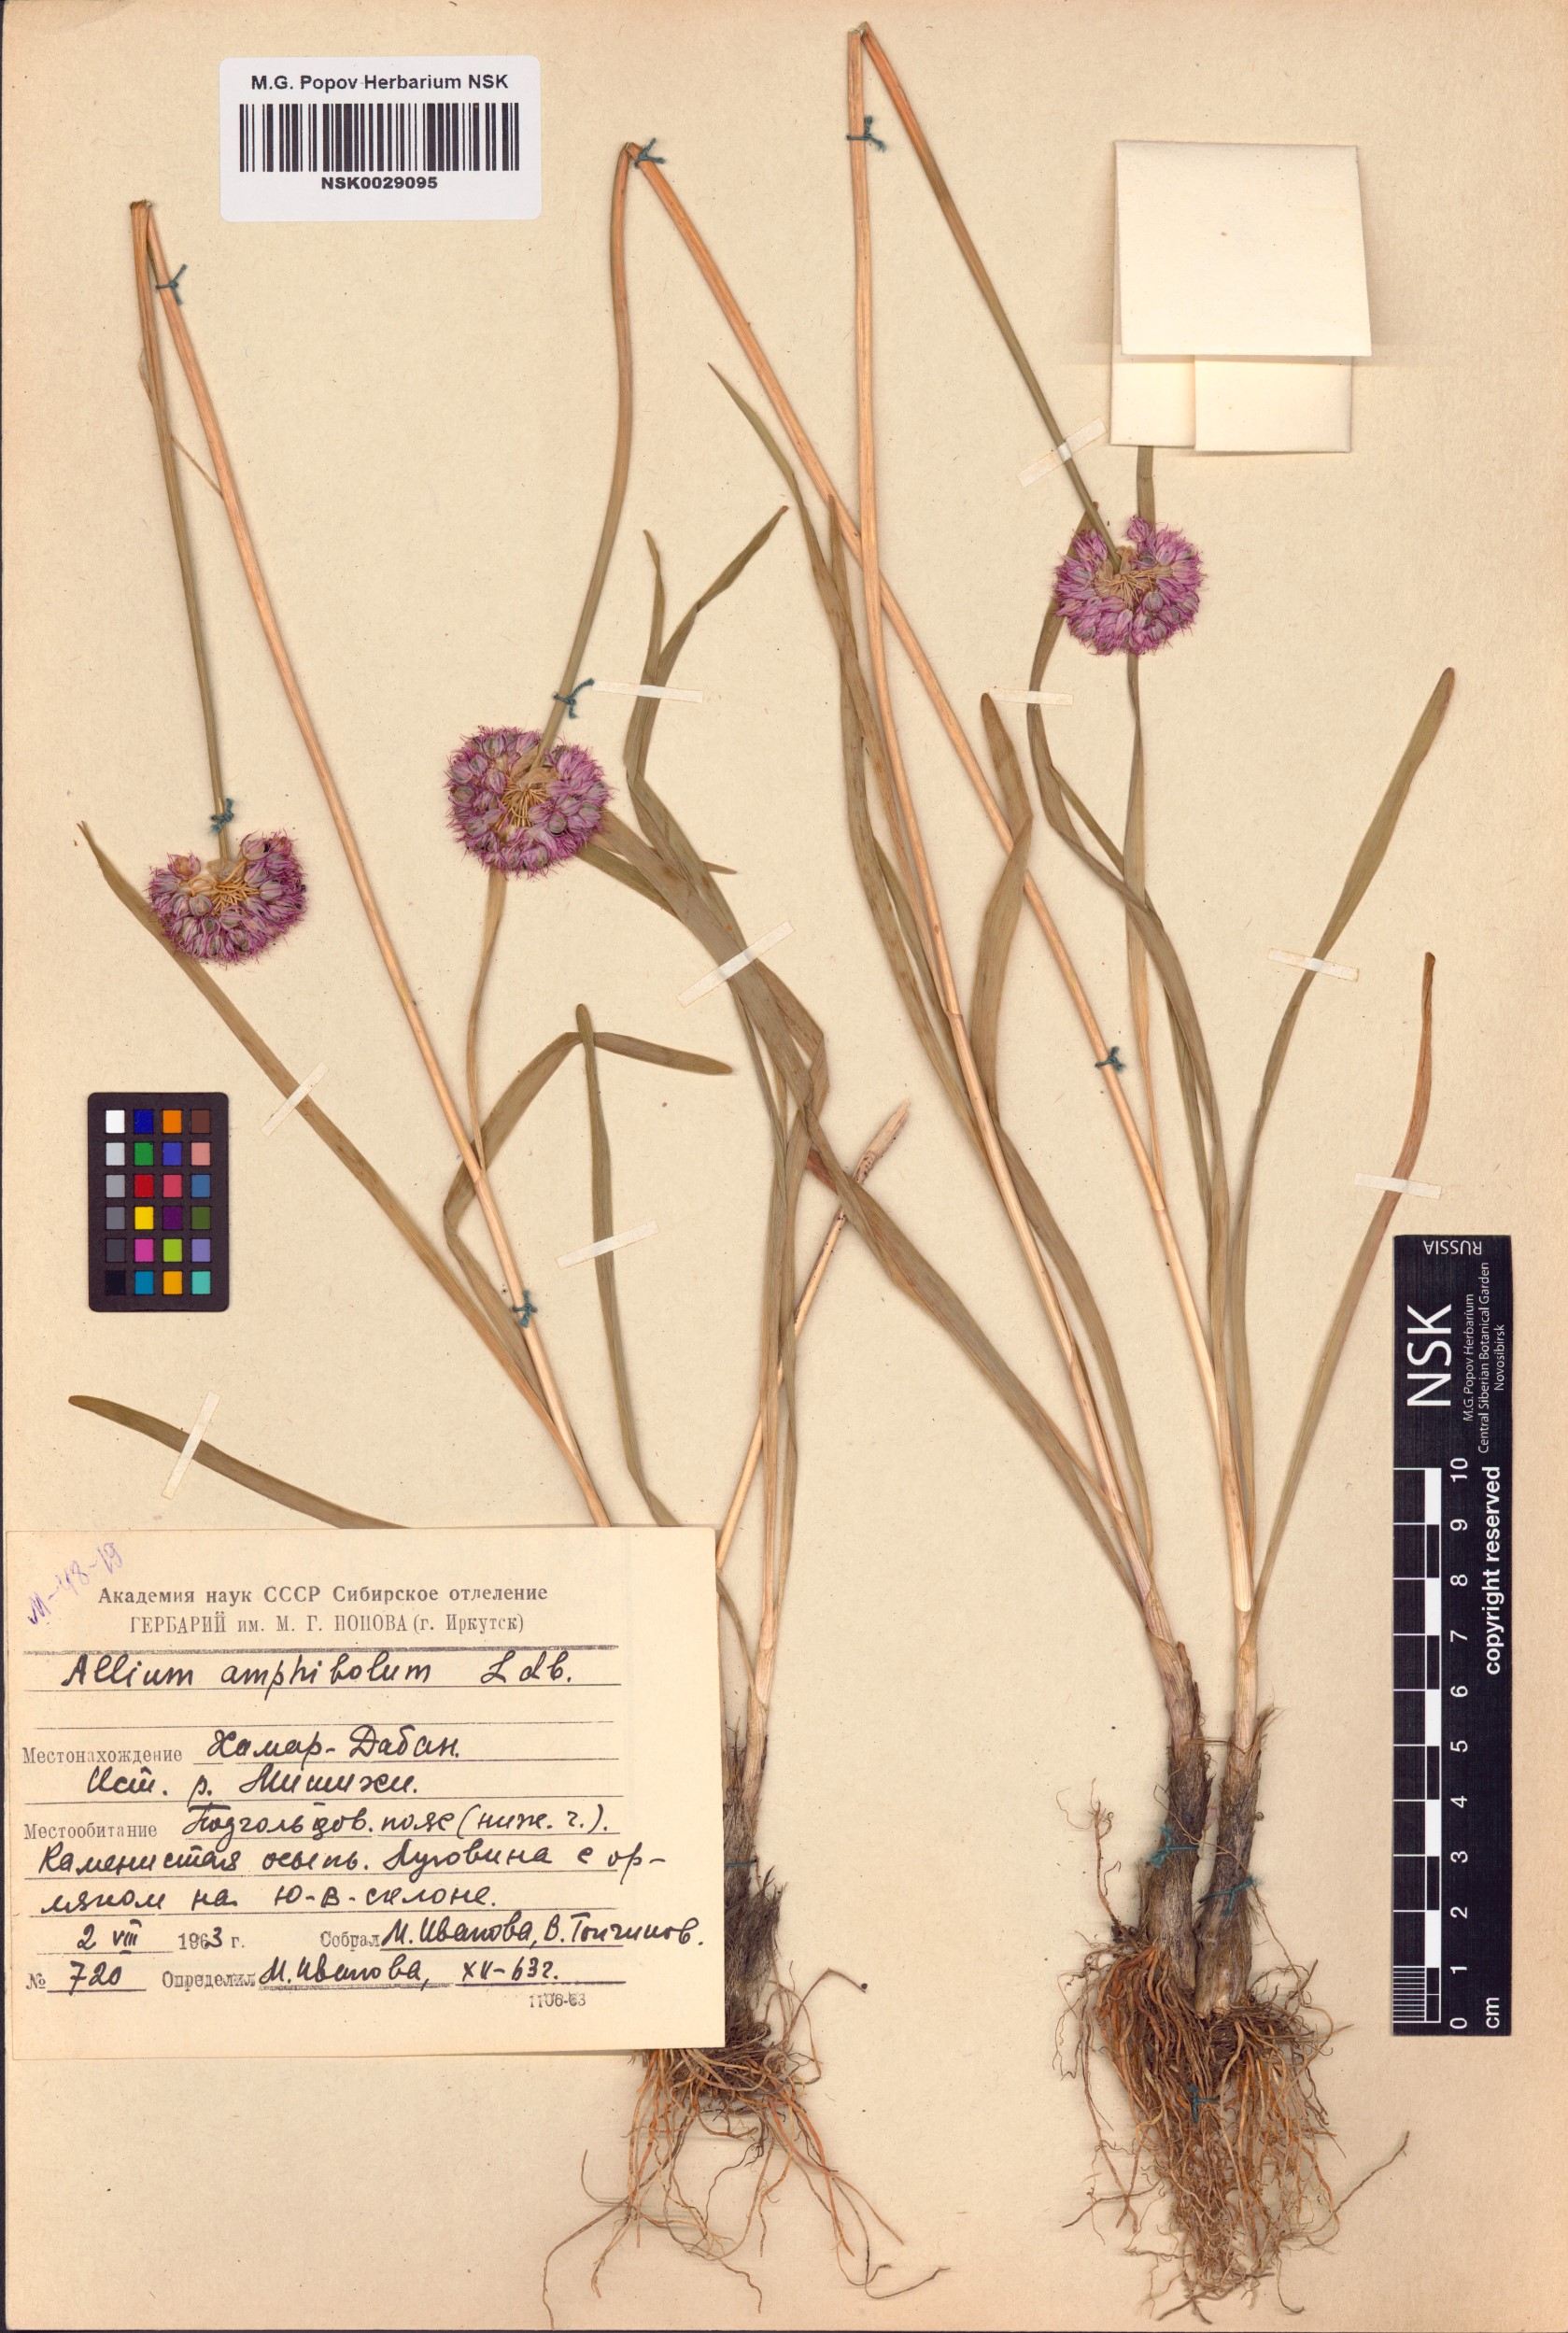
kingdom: Plantae
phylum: Tracheophyta
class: Liliopsida
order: Asparagales
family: Amaryllidaceae
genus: Allium
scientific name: Allium amphibolum
